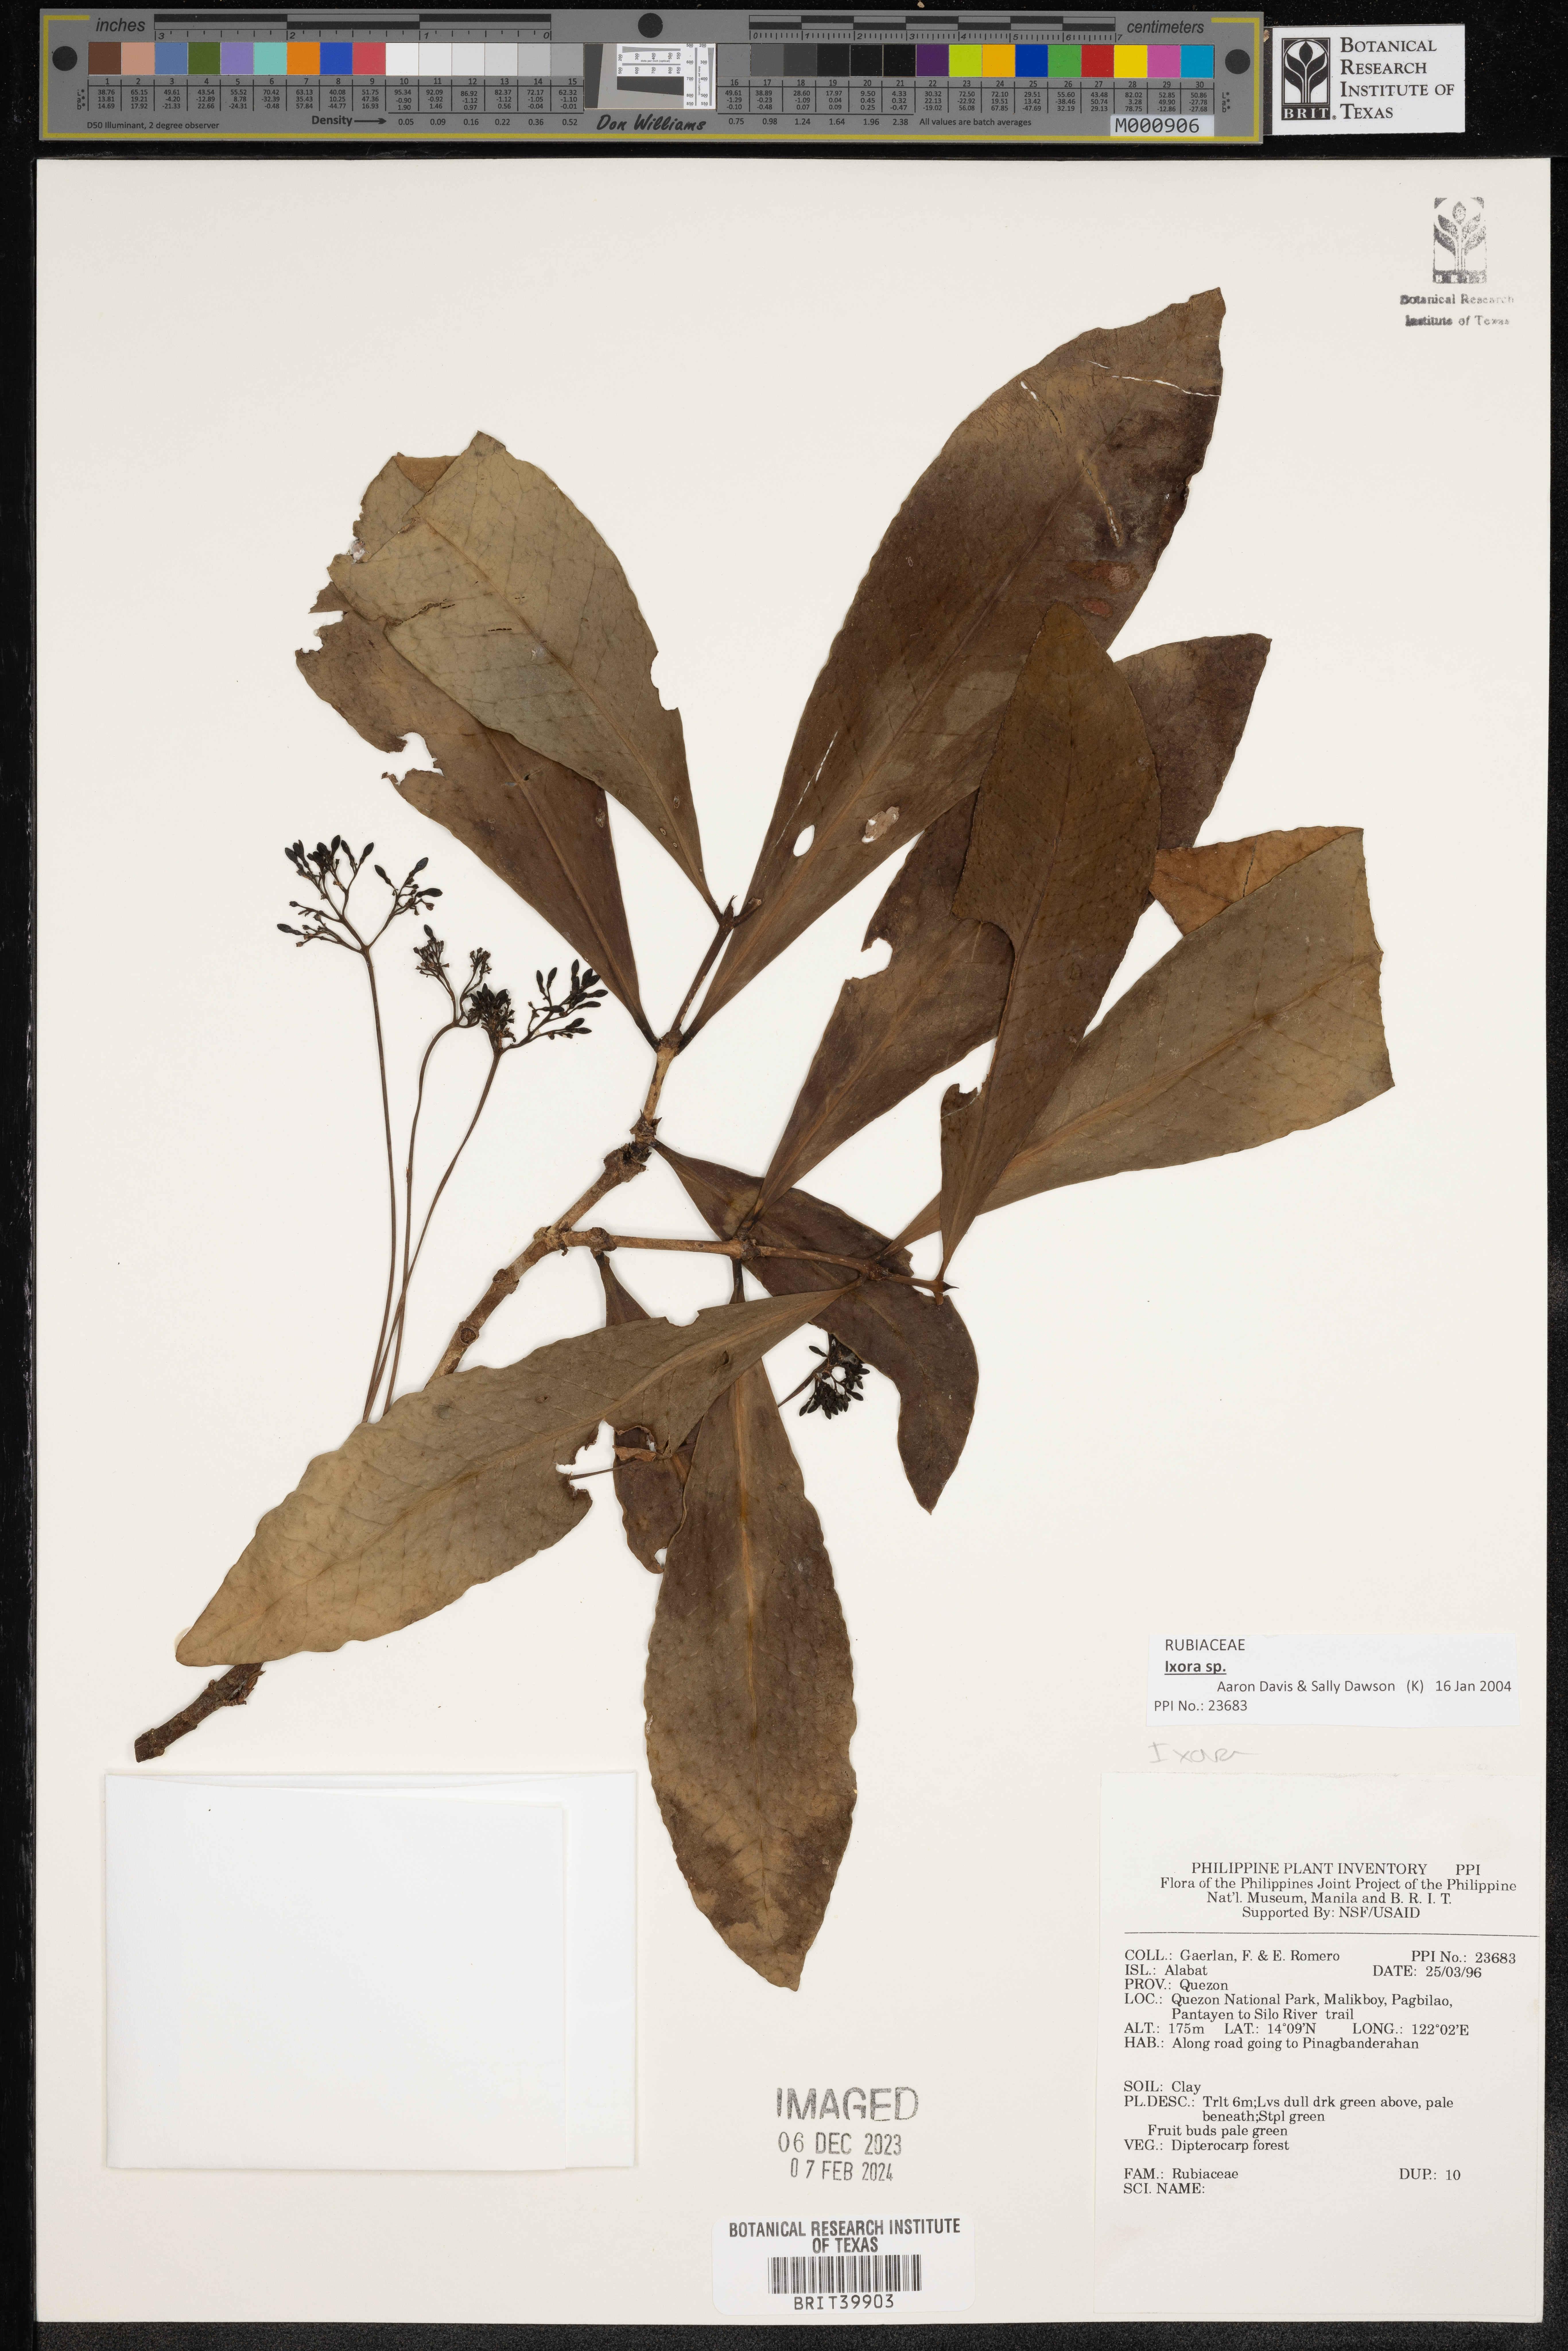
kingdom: Plantae
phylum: Tracheophyta
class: Magnoliopsida
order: Gentianales
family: Rubiaceae
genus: Ixora
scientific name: Ixora
